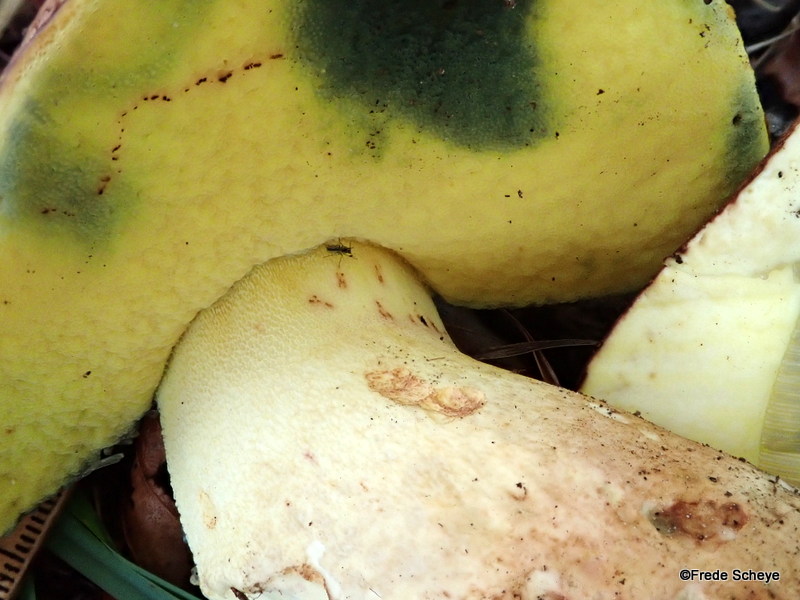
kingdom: Fungi
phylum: Basidiomycota
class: Agaricomycetes
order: Boletales
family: Boletaceae
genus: Butyriboletus
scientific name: Butyriboletus appendiculatus
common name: tenstokket rørhat
